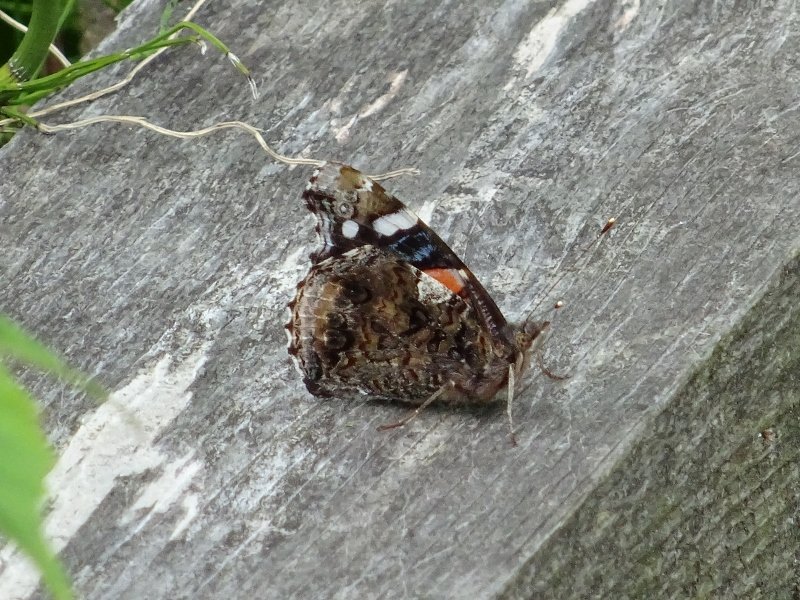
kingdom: Animalia
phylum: Arthropoda
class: Insecta
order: Lepidoptera
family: Nymphalidae
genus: Vanessa
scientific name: Vanessa atalanta
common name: Red Admiral
